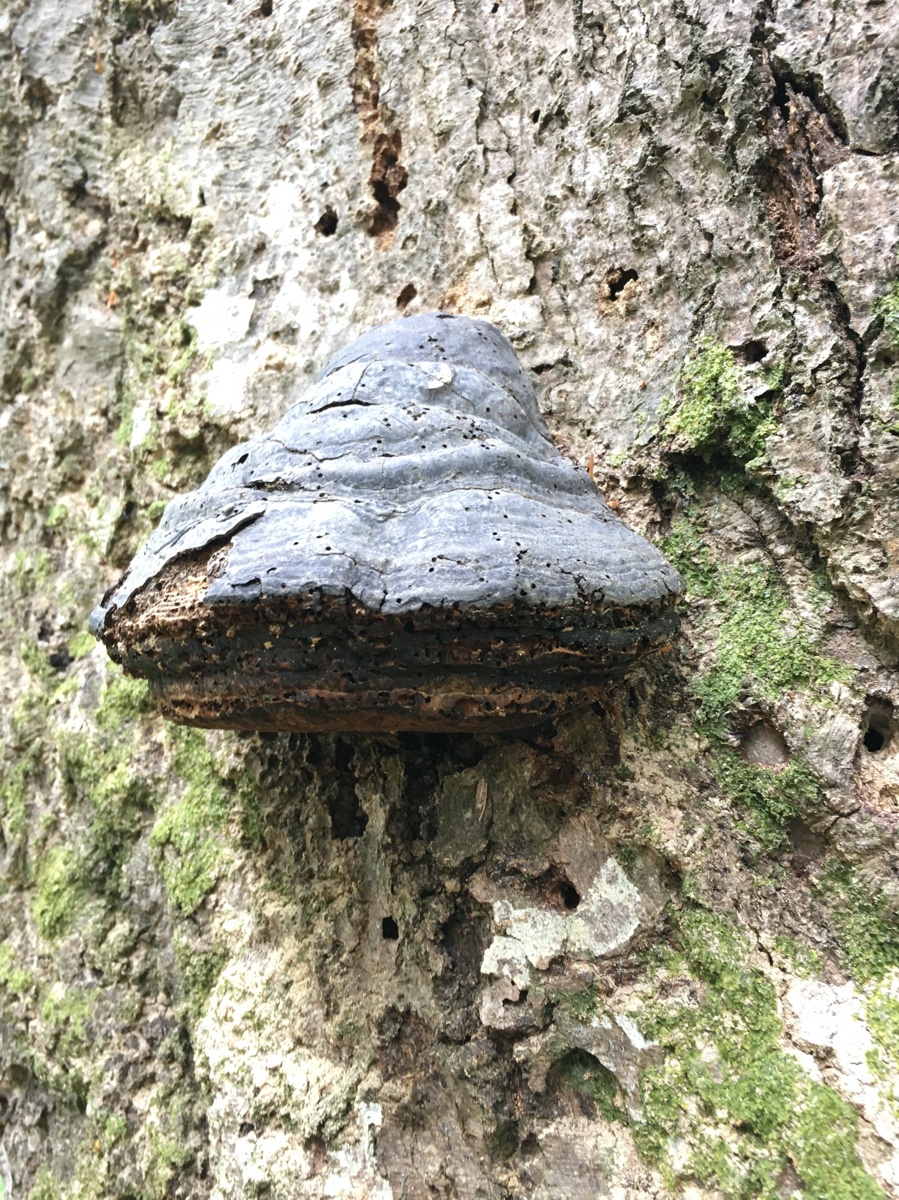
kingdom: Fungi
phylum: Basidiomycota
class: Agaricomycetes
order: Polyporales
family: Polyporaceae
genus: Fomes
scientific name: Fomes fomentarius
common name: tøndersvamp
